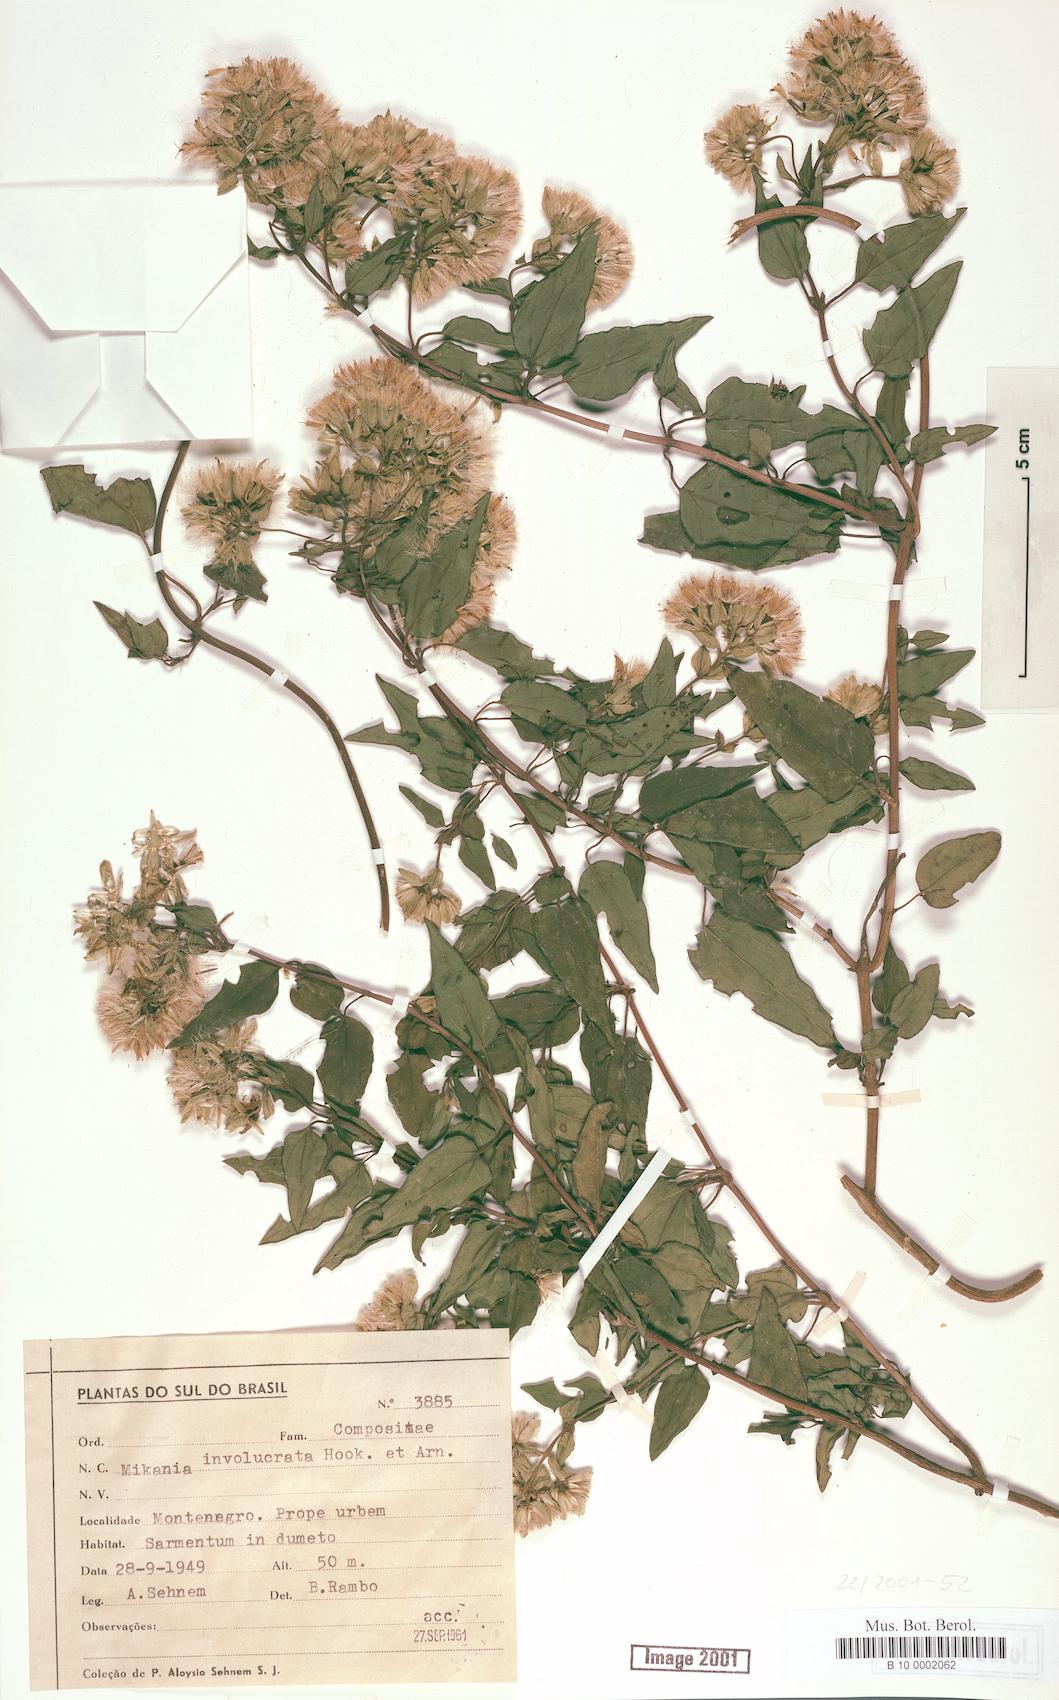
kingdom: Plantae
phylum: Tracheophyta
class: Magnoliopsida
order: Asterales
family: Asteraceae
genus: Mikania
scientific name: Mikania involucrata
